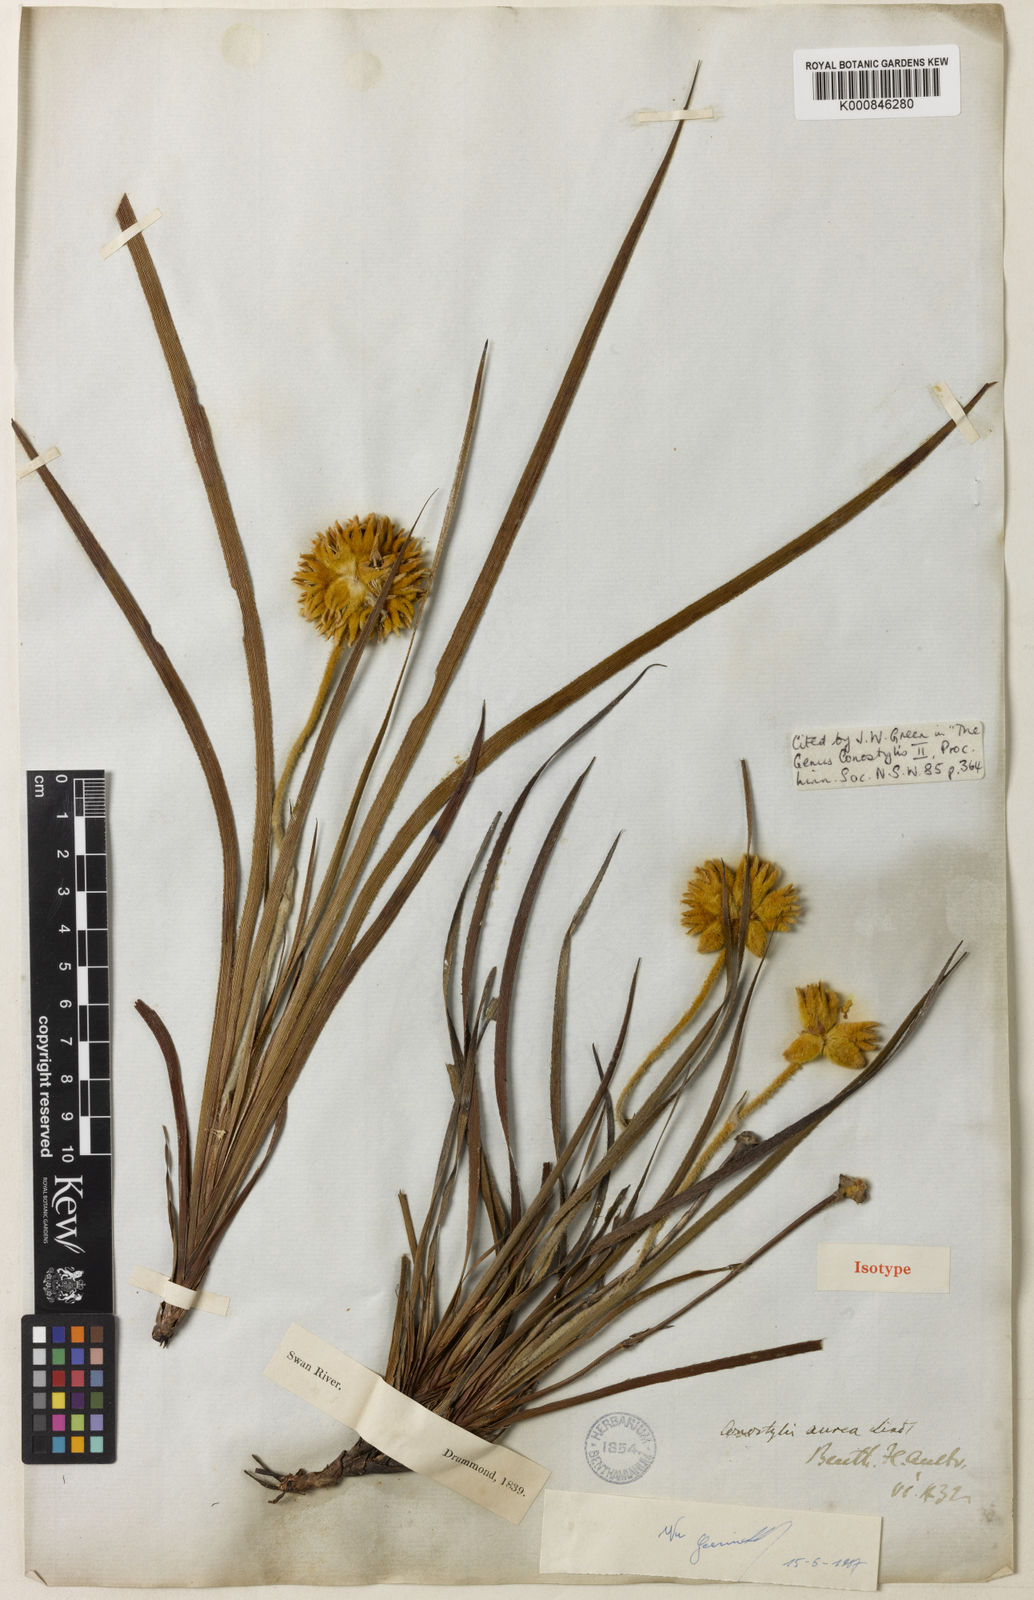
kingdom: Plantae
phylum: Tracheophyta
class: Liliopsida
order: Commelinales
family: Haemodoraceae
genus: Conostylis
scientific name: Conostylis aurea
